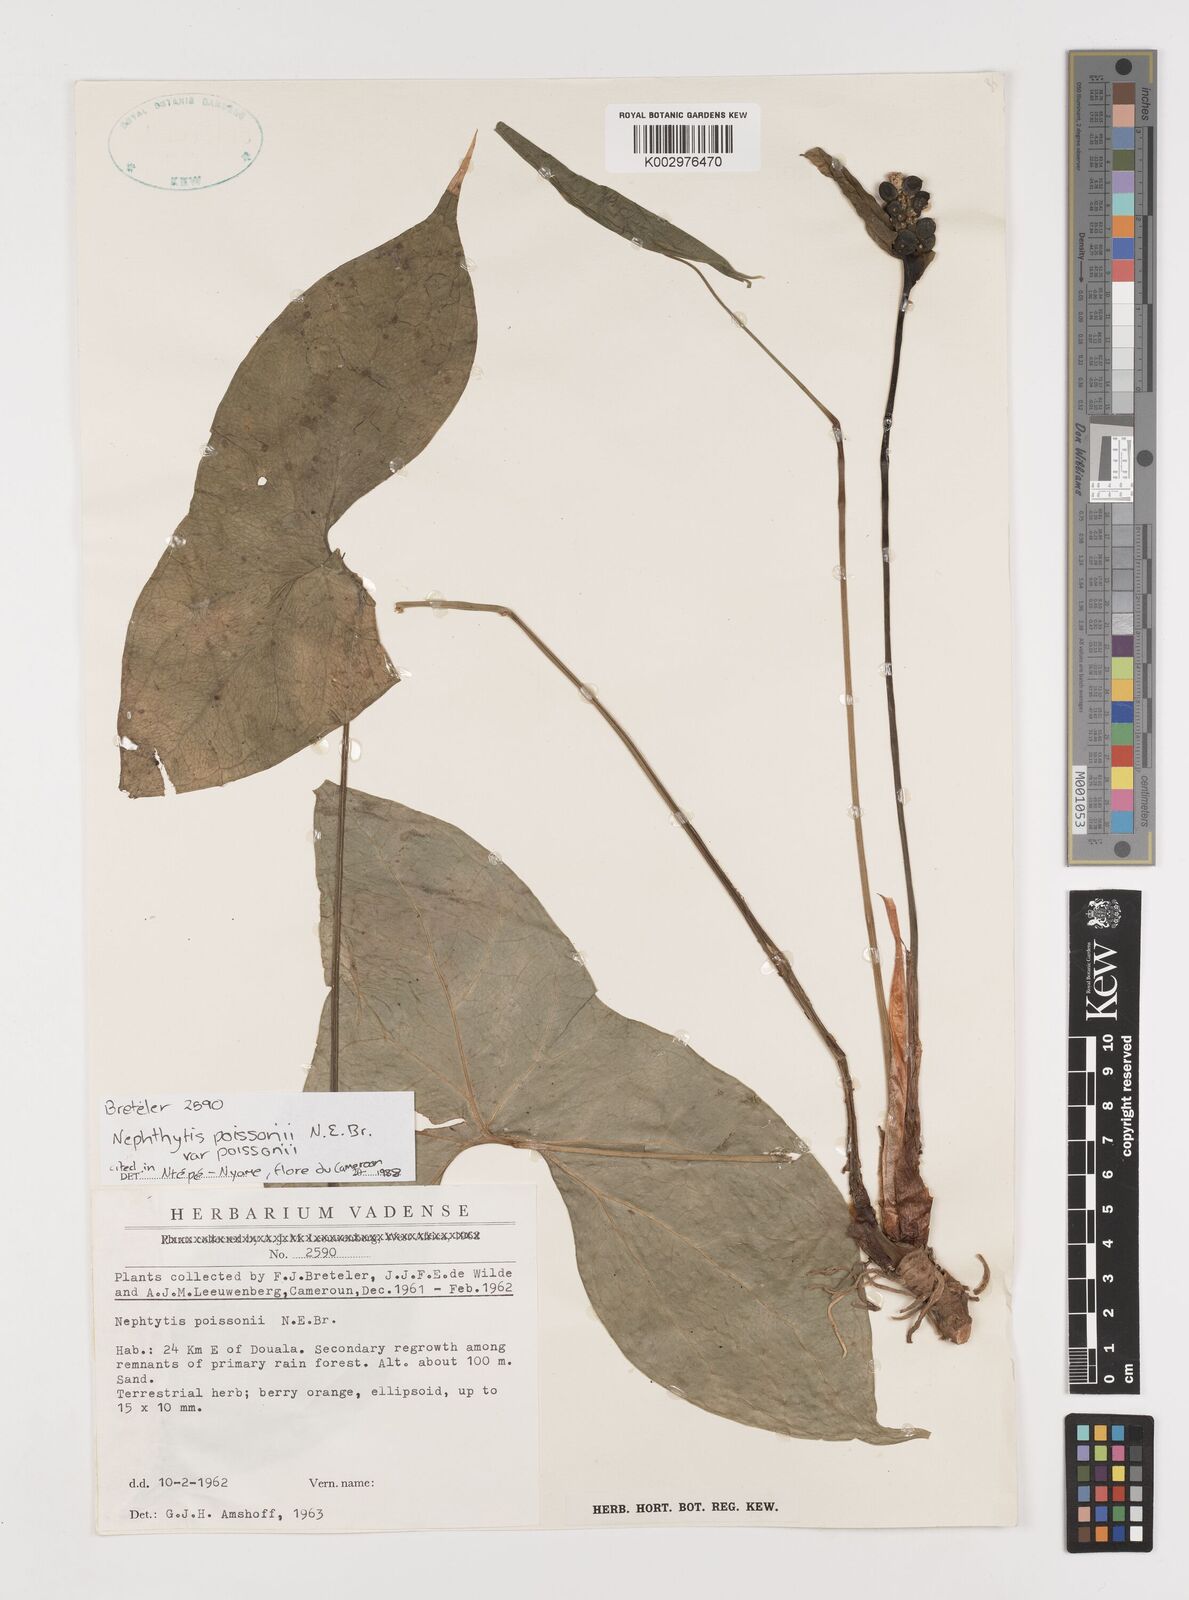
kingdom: Plantae
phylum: Tracheophyta
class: Liliopsida
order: Alismatales
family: Araceae
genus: Nephthytis
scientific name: Nephthytis poissonii
